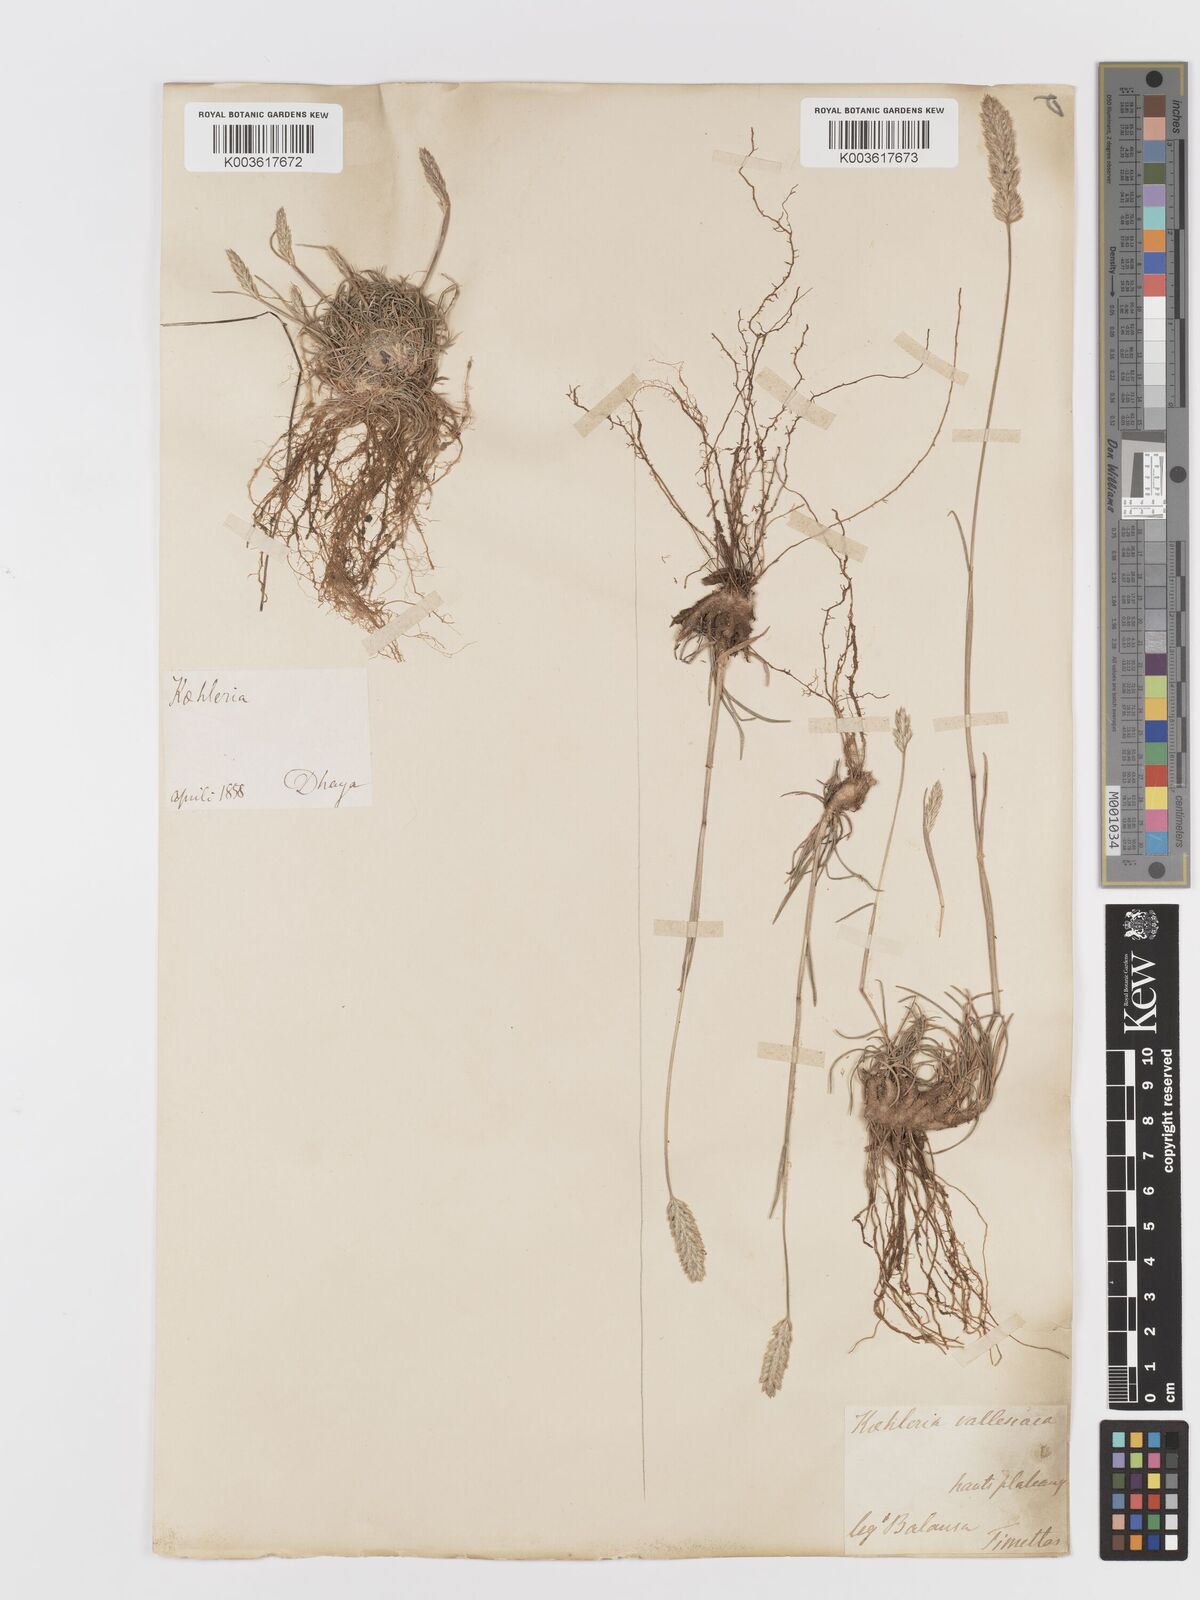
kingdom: Plantae
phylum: Tracheophyta
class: Liliopsida
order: Poales
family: Poaceae
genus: Koeleria
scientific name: Koeleria vallesiana
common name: Somerset hair-grass
